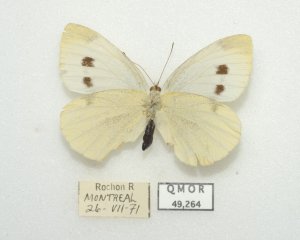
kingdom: Animalia
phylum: Arthropoda
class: Insecta
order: Lepidoptera
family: Pieridae
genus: Pieris
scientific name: Pieris rapae
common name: Cabbage White
